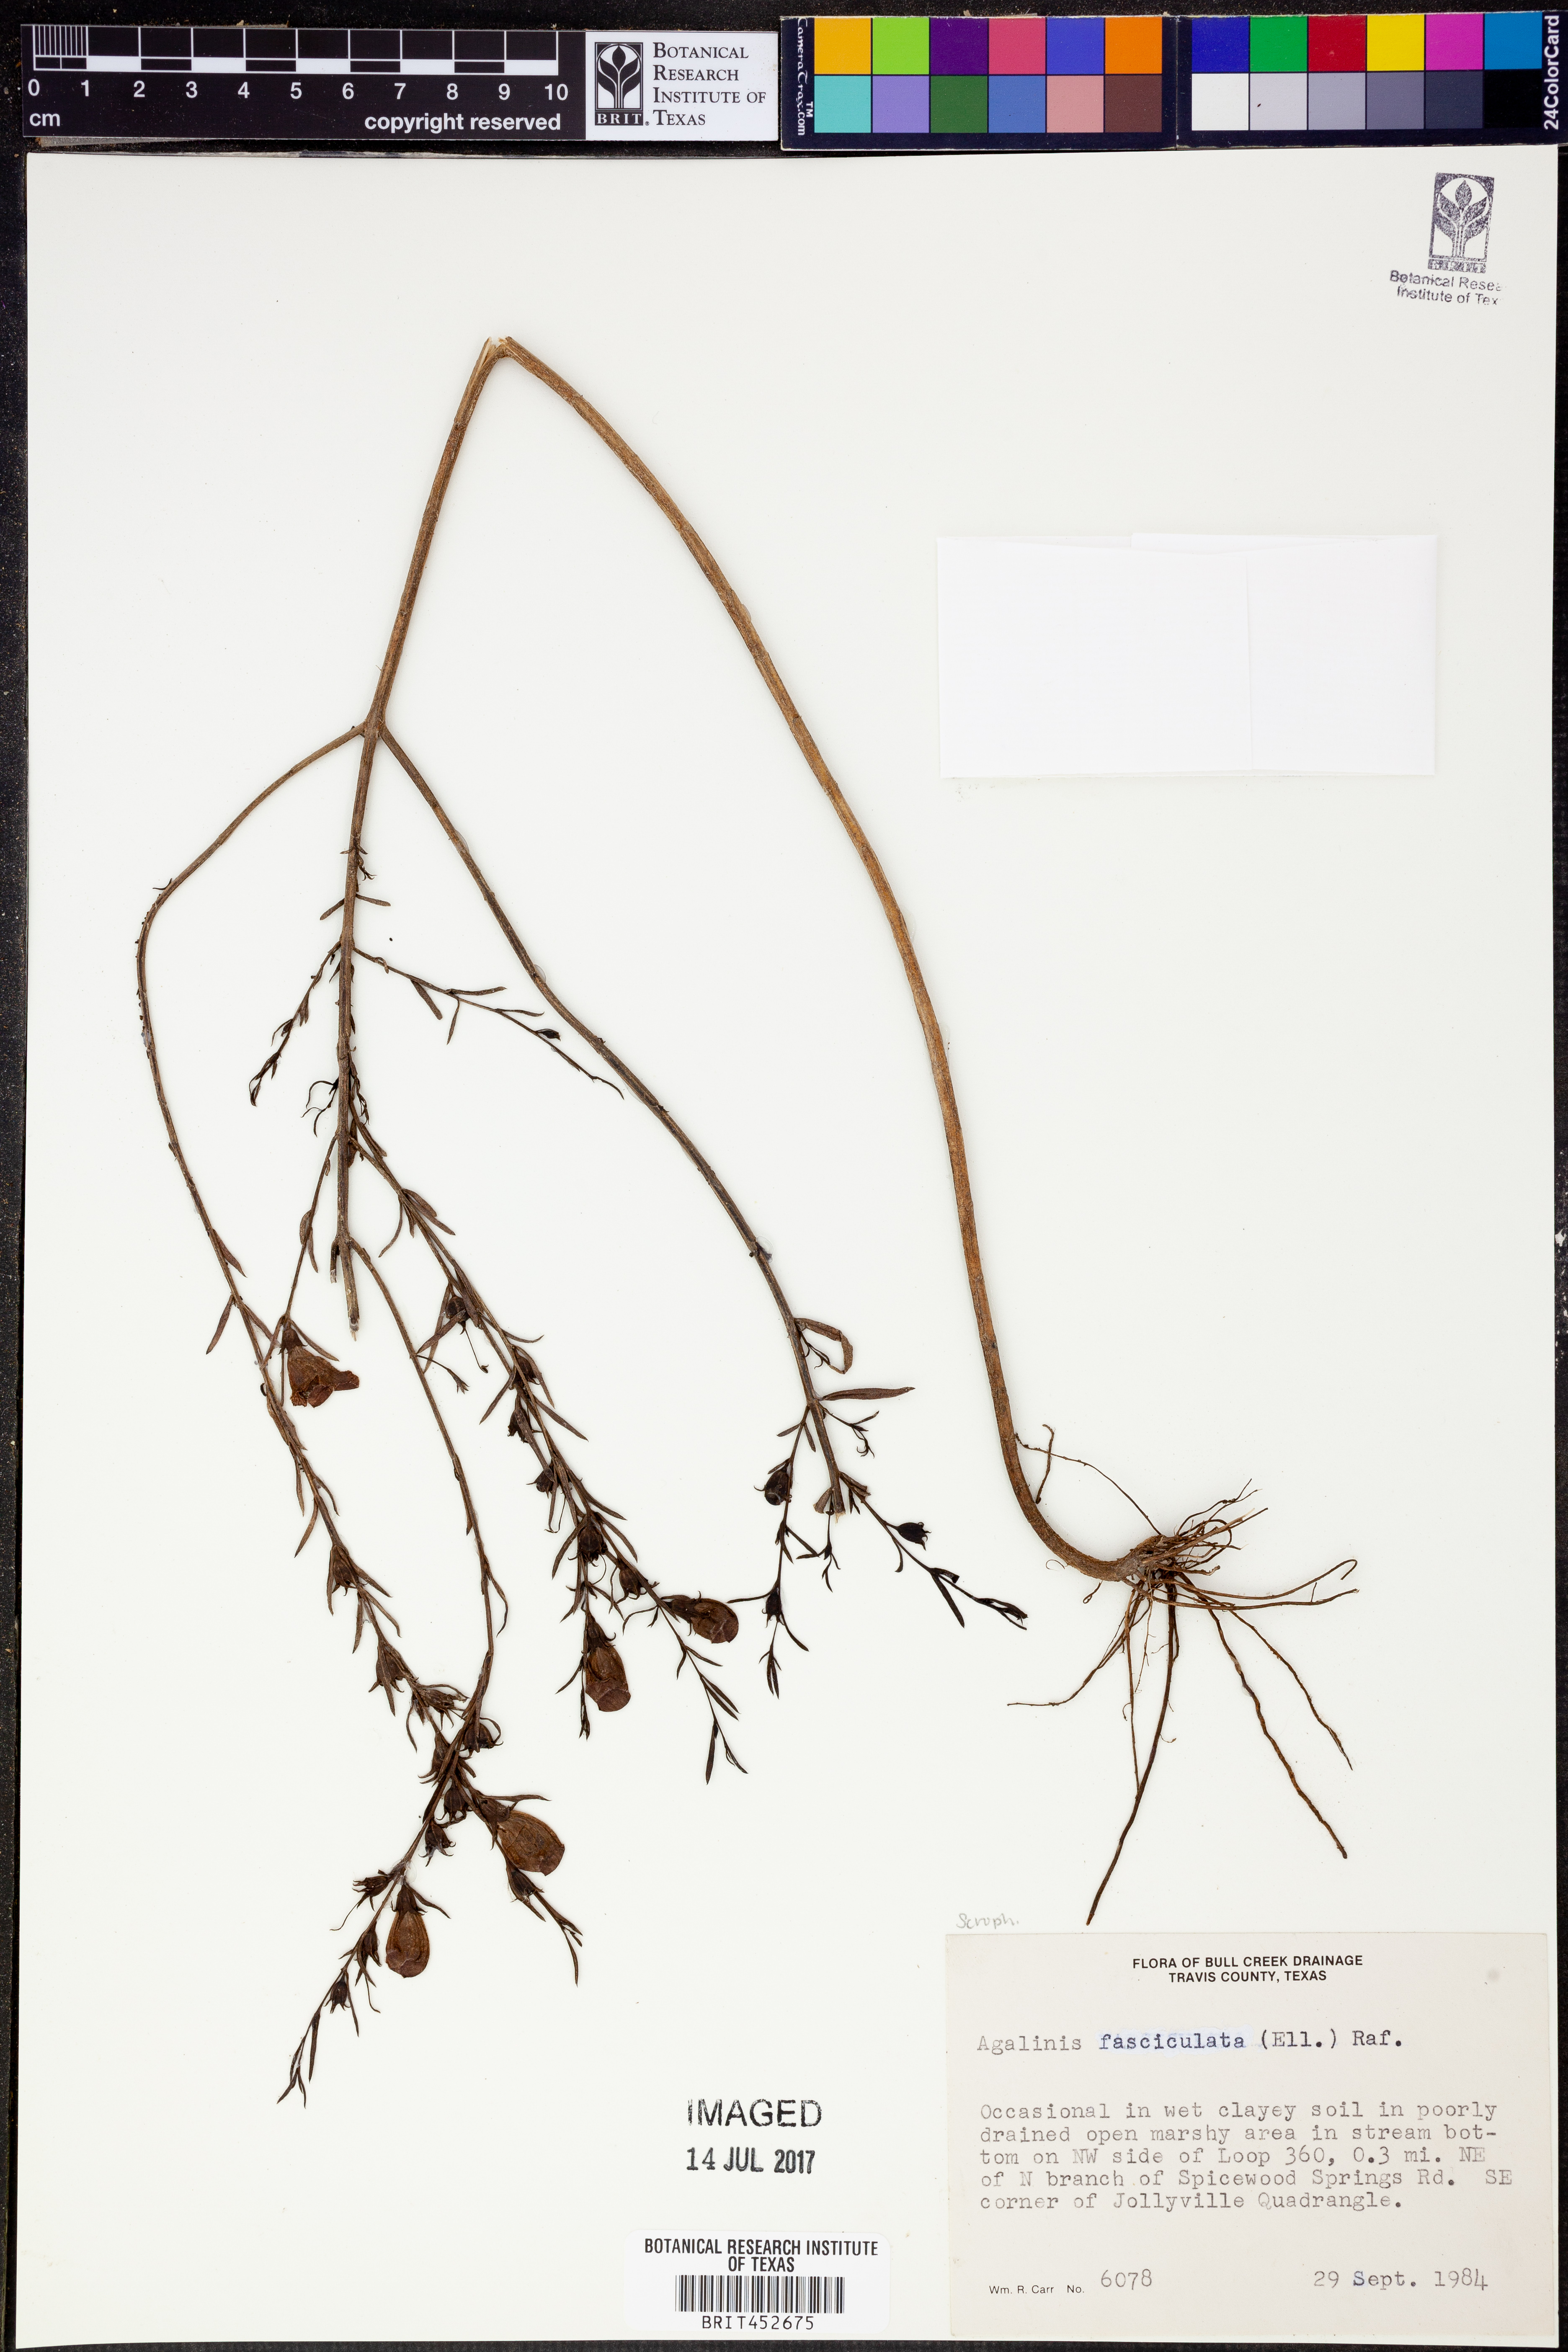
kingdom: Plantae
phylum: Tracheophyta
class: Magnoliopsida
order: Lamiales
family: Orobanchaceae
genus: Agalinis
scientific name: Agalinis fasciculata
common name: Beach false foxglove
